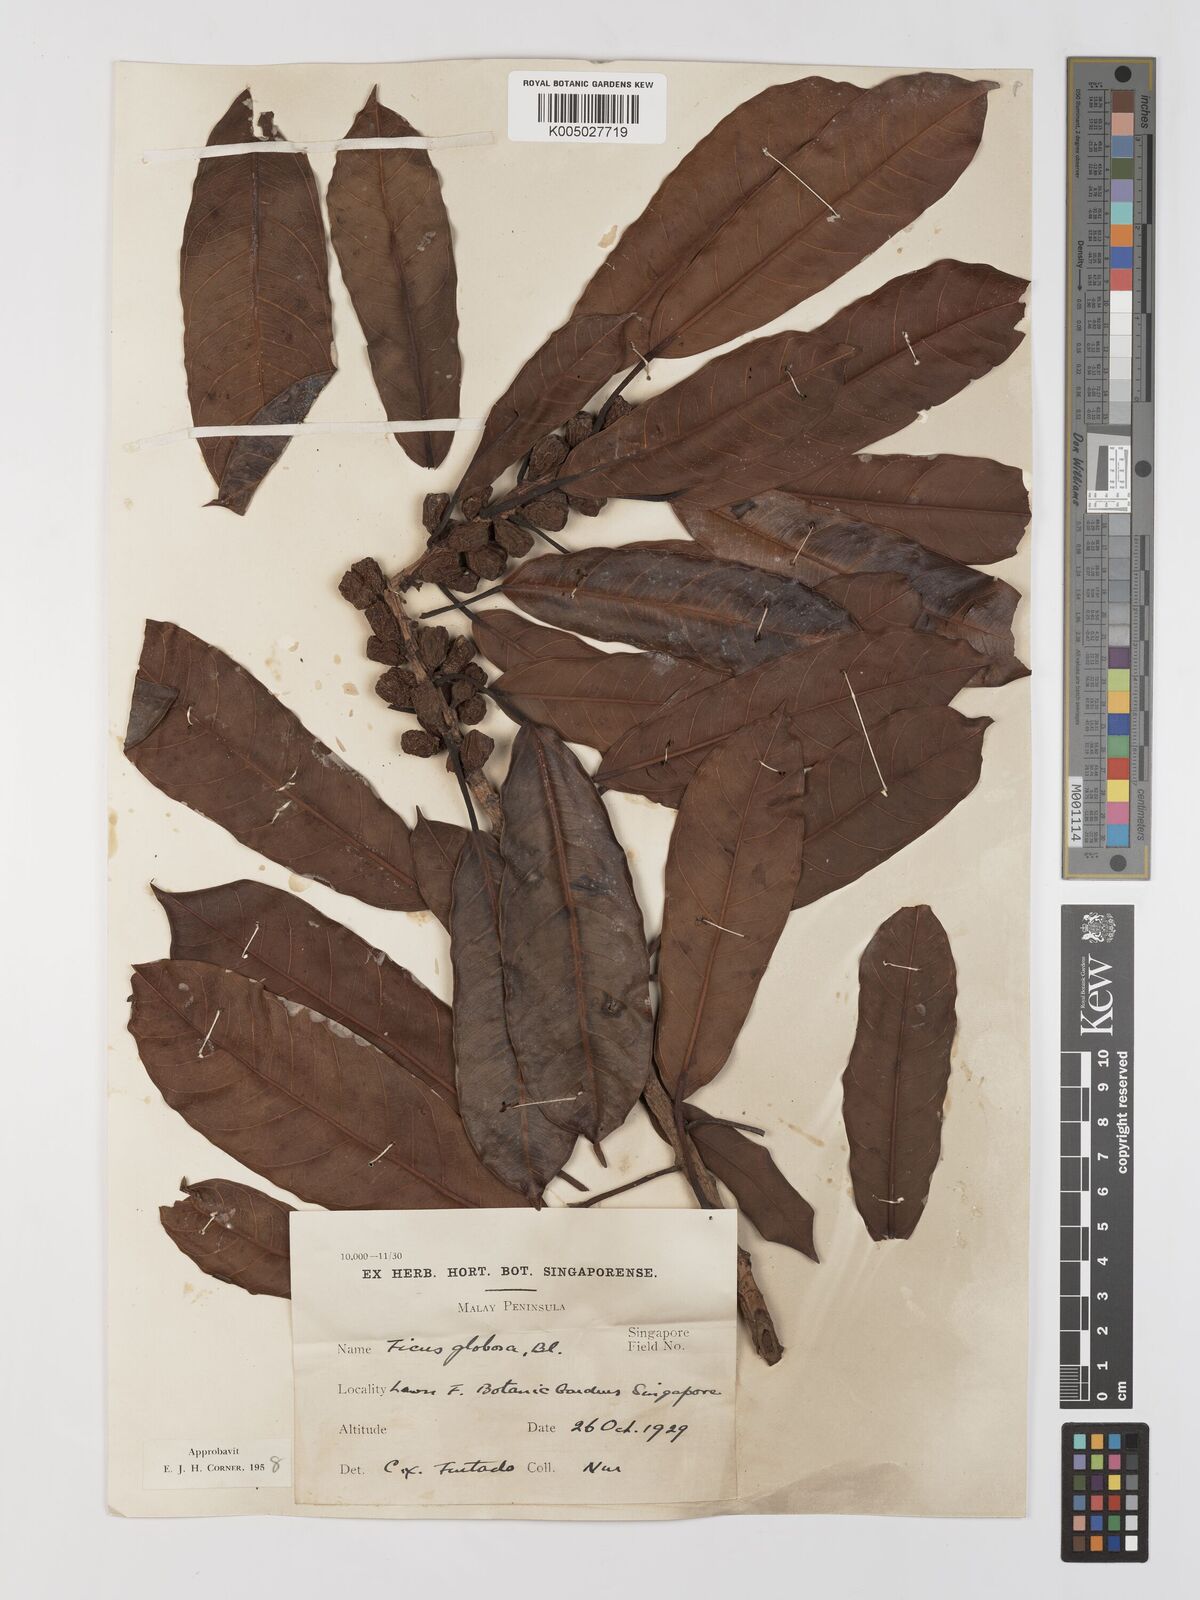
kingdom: Plantae
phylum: Tracheophyta
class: Magnoliopsida
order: Rosales
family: Moraceae
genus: Ficus
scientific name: Ficus
